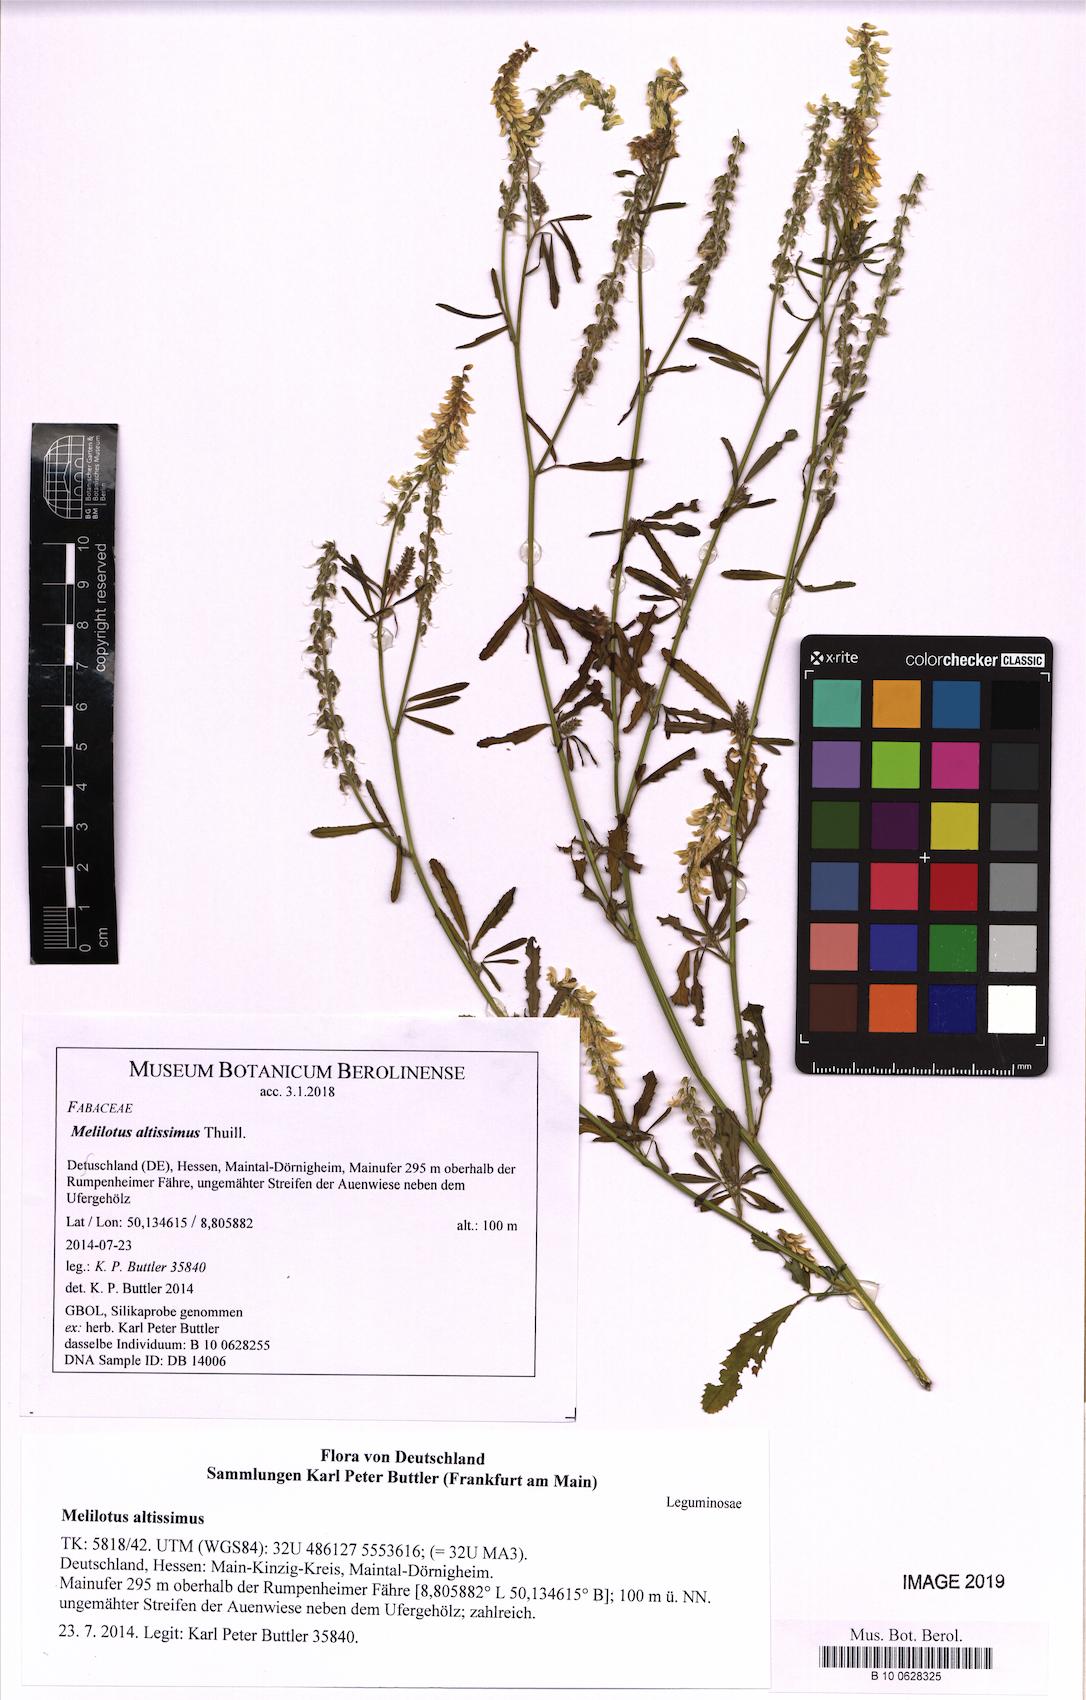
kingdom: Plantae
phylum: Tracheophyta
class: Magnoliopsida
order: Fabales
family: Fabaceae
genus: Melilotus
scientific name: Melilotus altissimus
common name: Tall melilot
